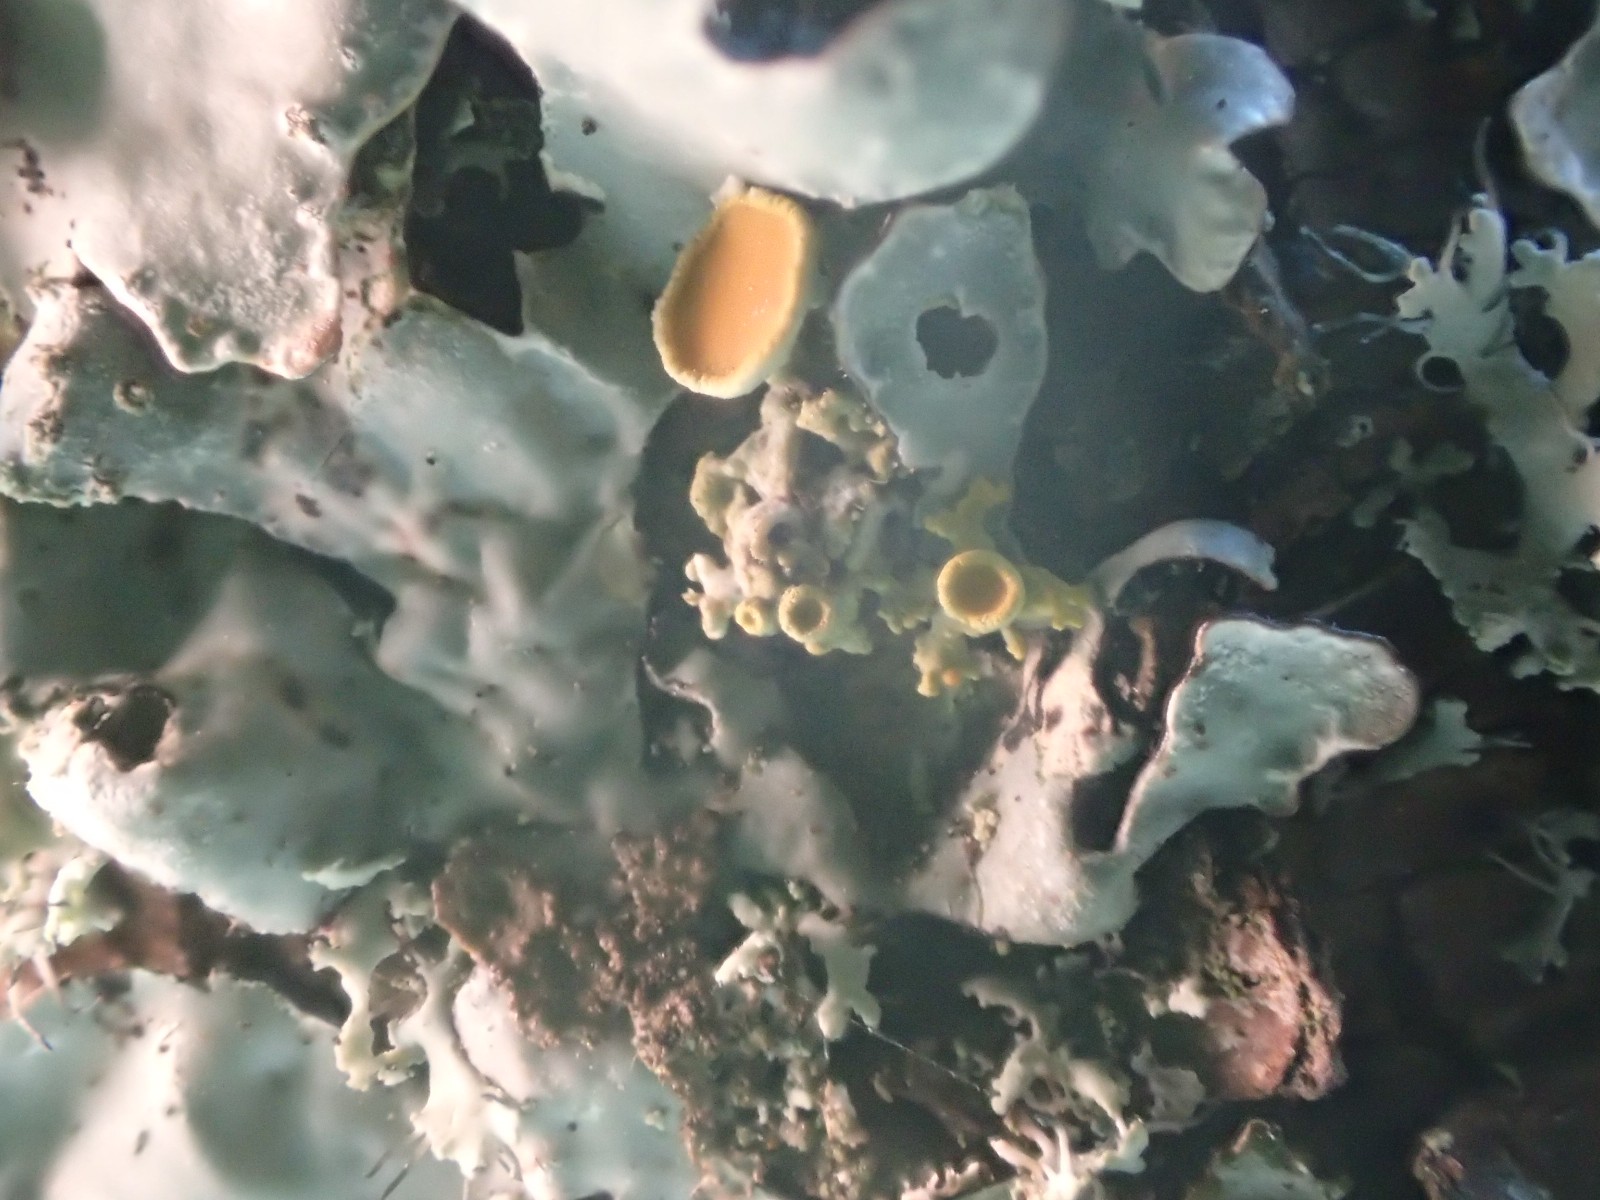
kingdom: Fungi
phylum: Ascomycota
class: Lecanoromycetes
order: Teloschistales
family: Teloschistaceae
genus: Polycauliona
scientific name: Polycauliona polycarpa
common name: mangefrugtet orangelav
